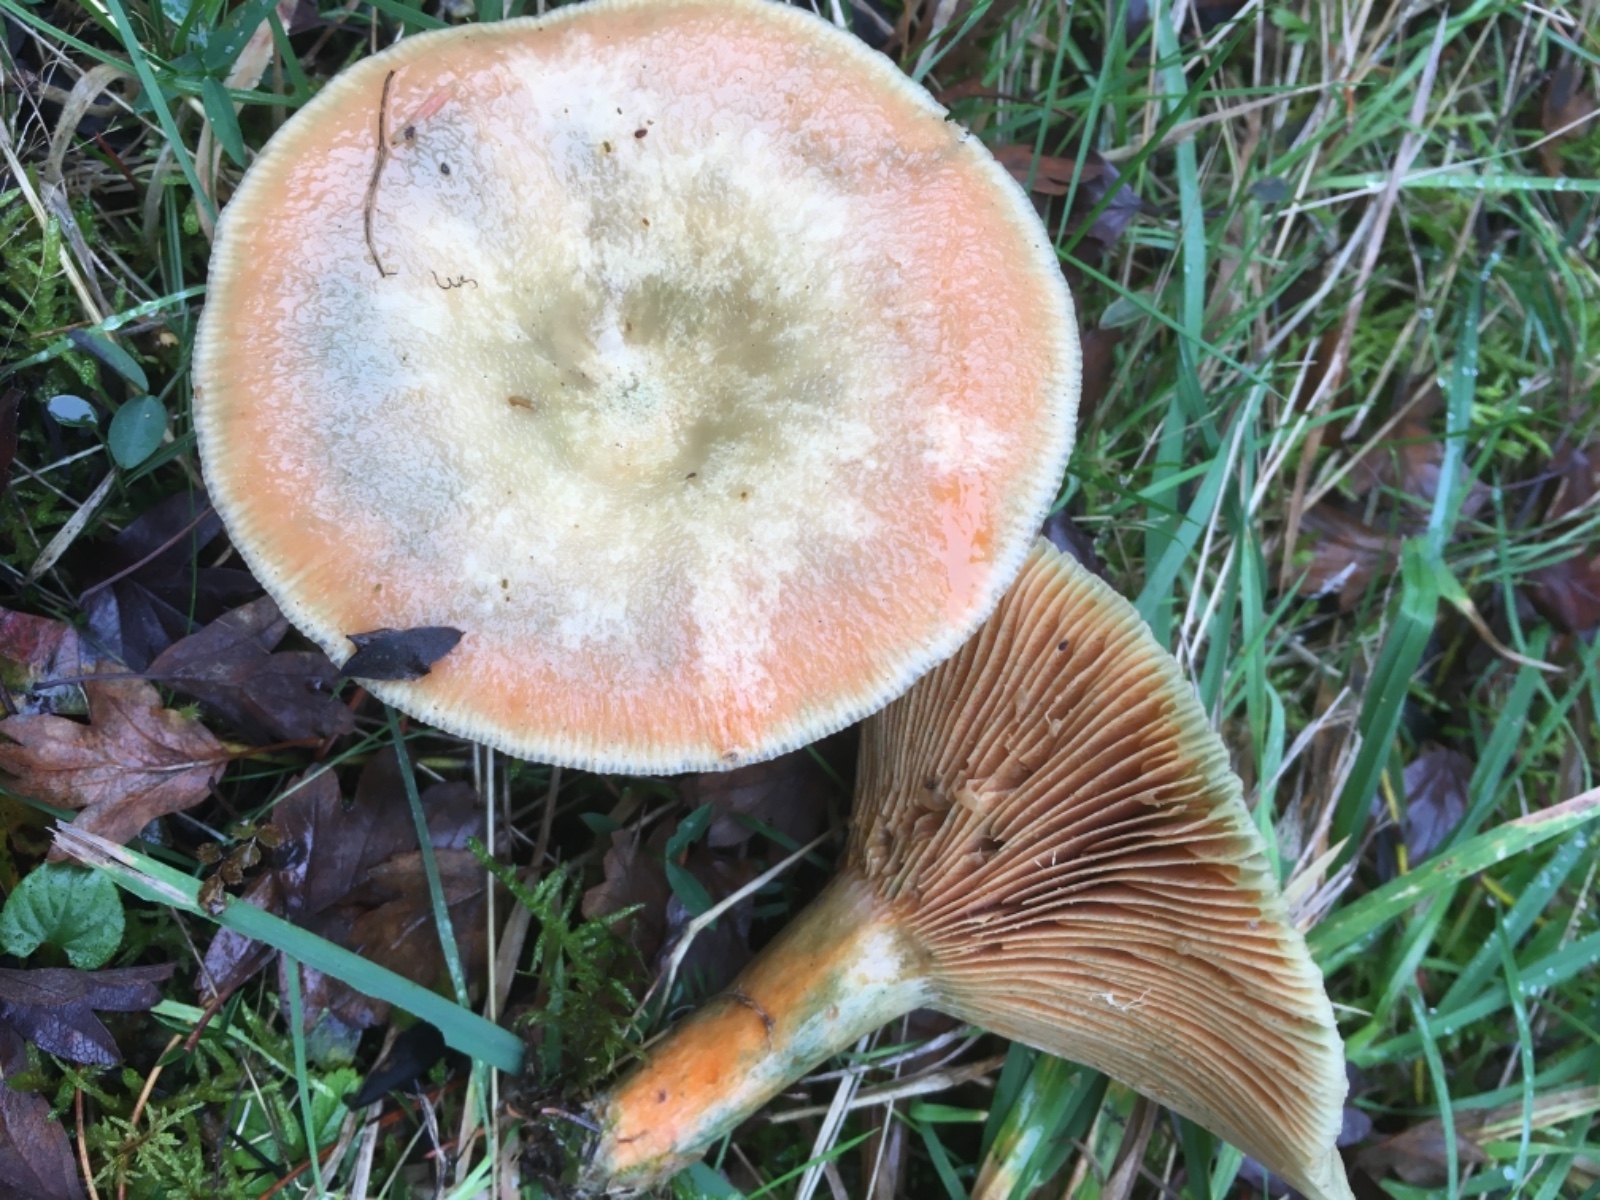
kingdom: Fungi
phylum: Basidiomycota
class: Agaricomycetes
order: Russulales
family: Russulaceae
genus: Lactarius
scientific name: Lactarius deterrimus
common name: gran-mælkehat
